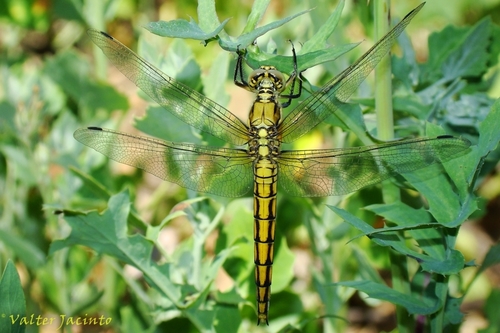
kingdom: Animalia
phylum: Arthropoda
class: Insecta
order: Odonata
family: Libellulidae
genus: Orthetrum
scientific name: Orthetrum cancellatum
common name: Black-tailed skimmer
